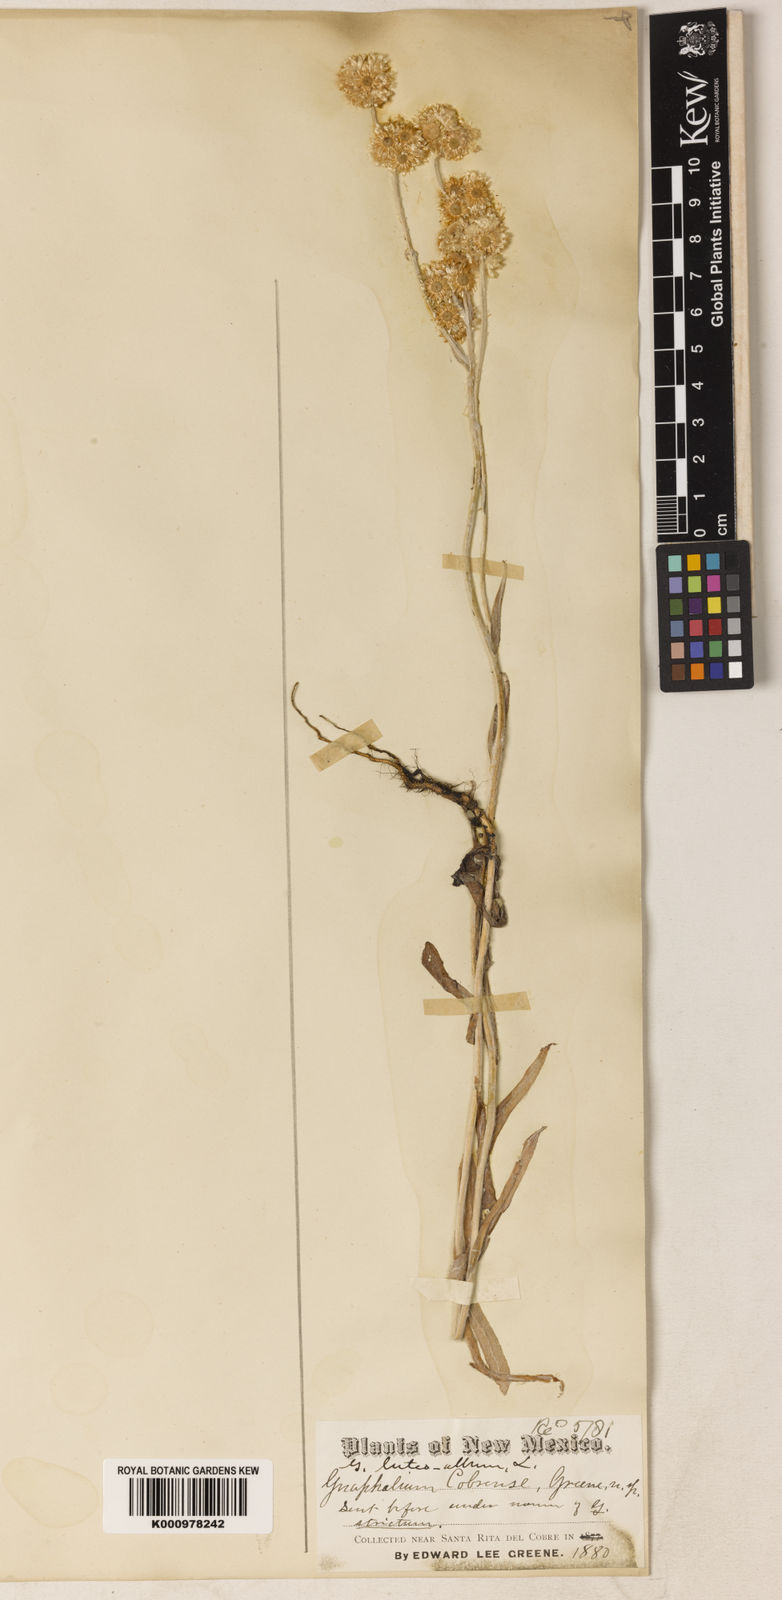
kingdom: Plantae
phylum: Tracheophyta
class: Magnoliopsida
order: Asterales
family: Asteraceae
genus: Helichrysum
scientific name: Helichrysum luteoalbum
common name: Daisy
